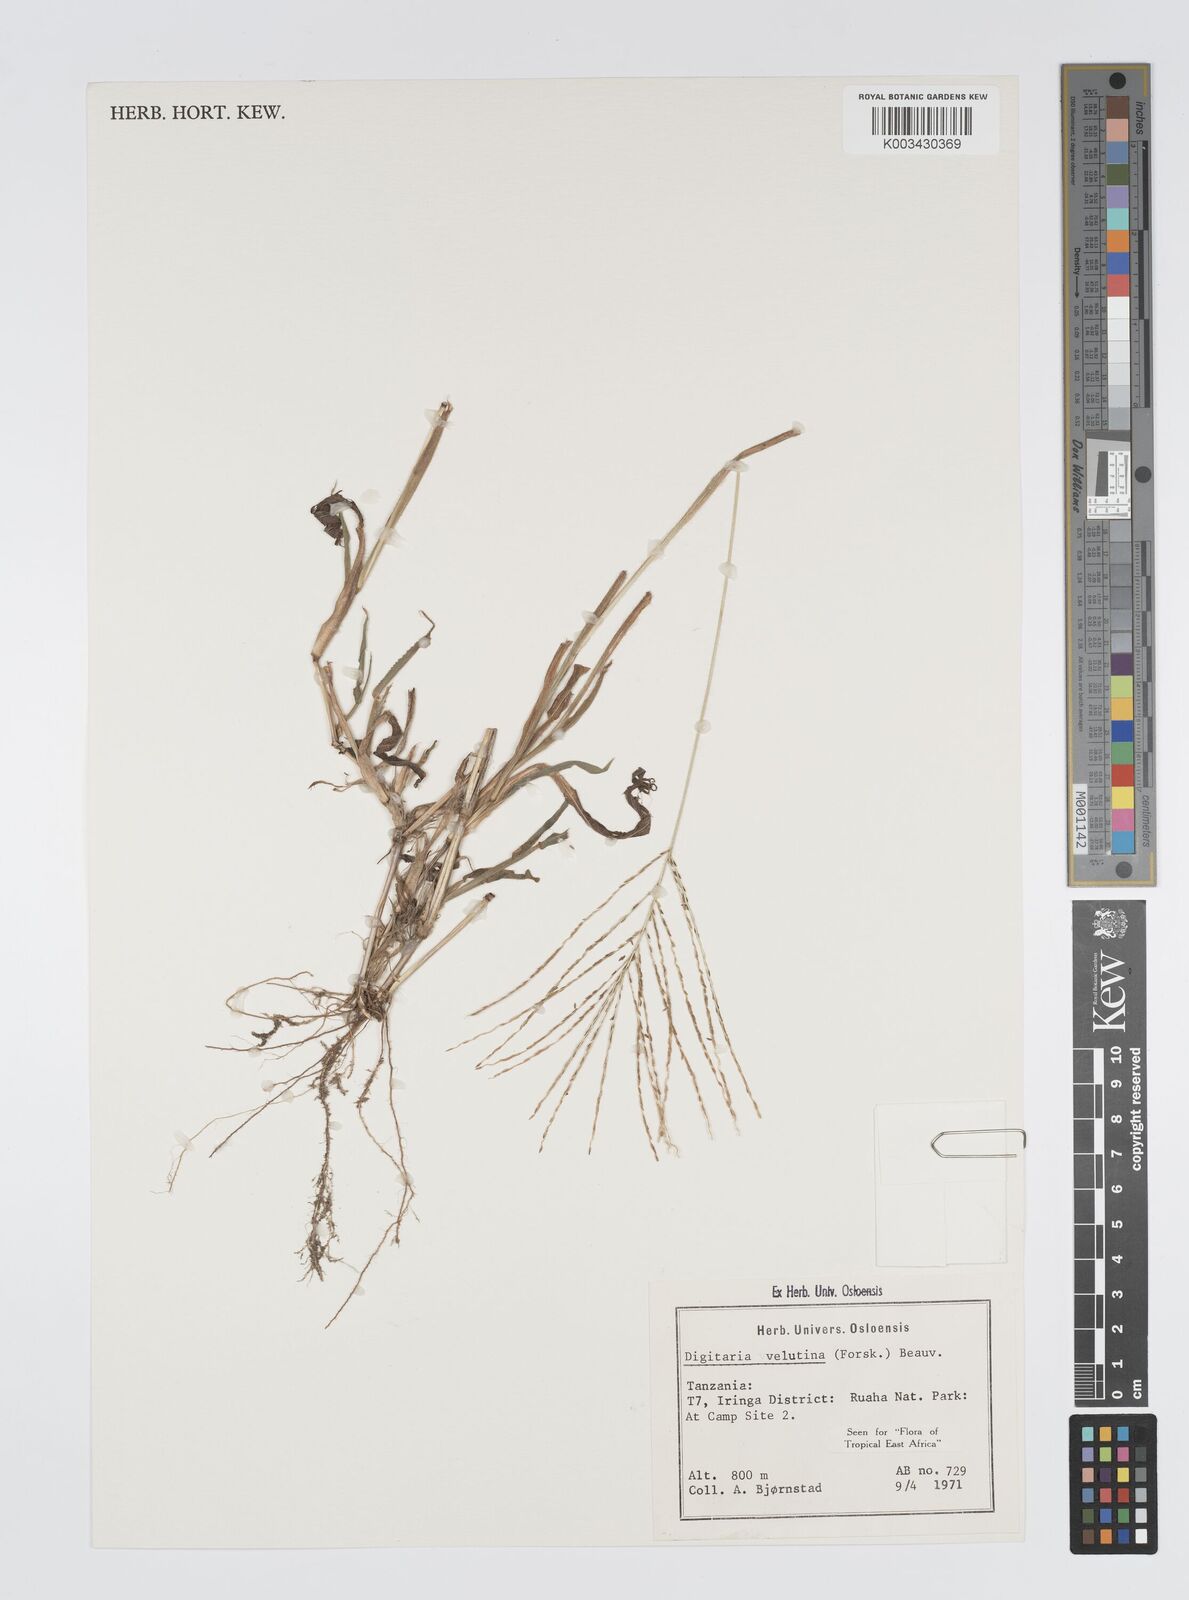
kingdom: Plantae
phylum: Tracheophyta
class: Liliopsida
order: Poales
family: Poaceae
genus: Digitaria
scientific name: Digitaria velutina
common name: Long-plume finger grass
